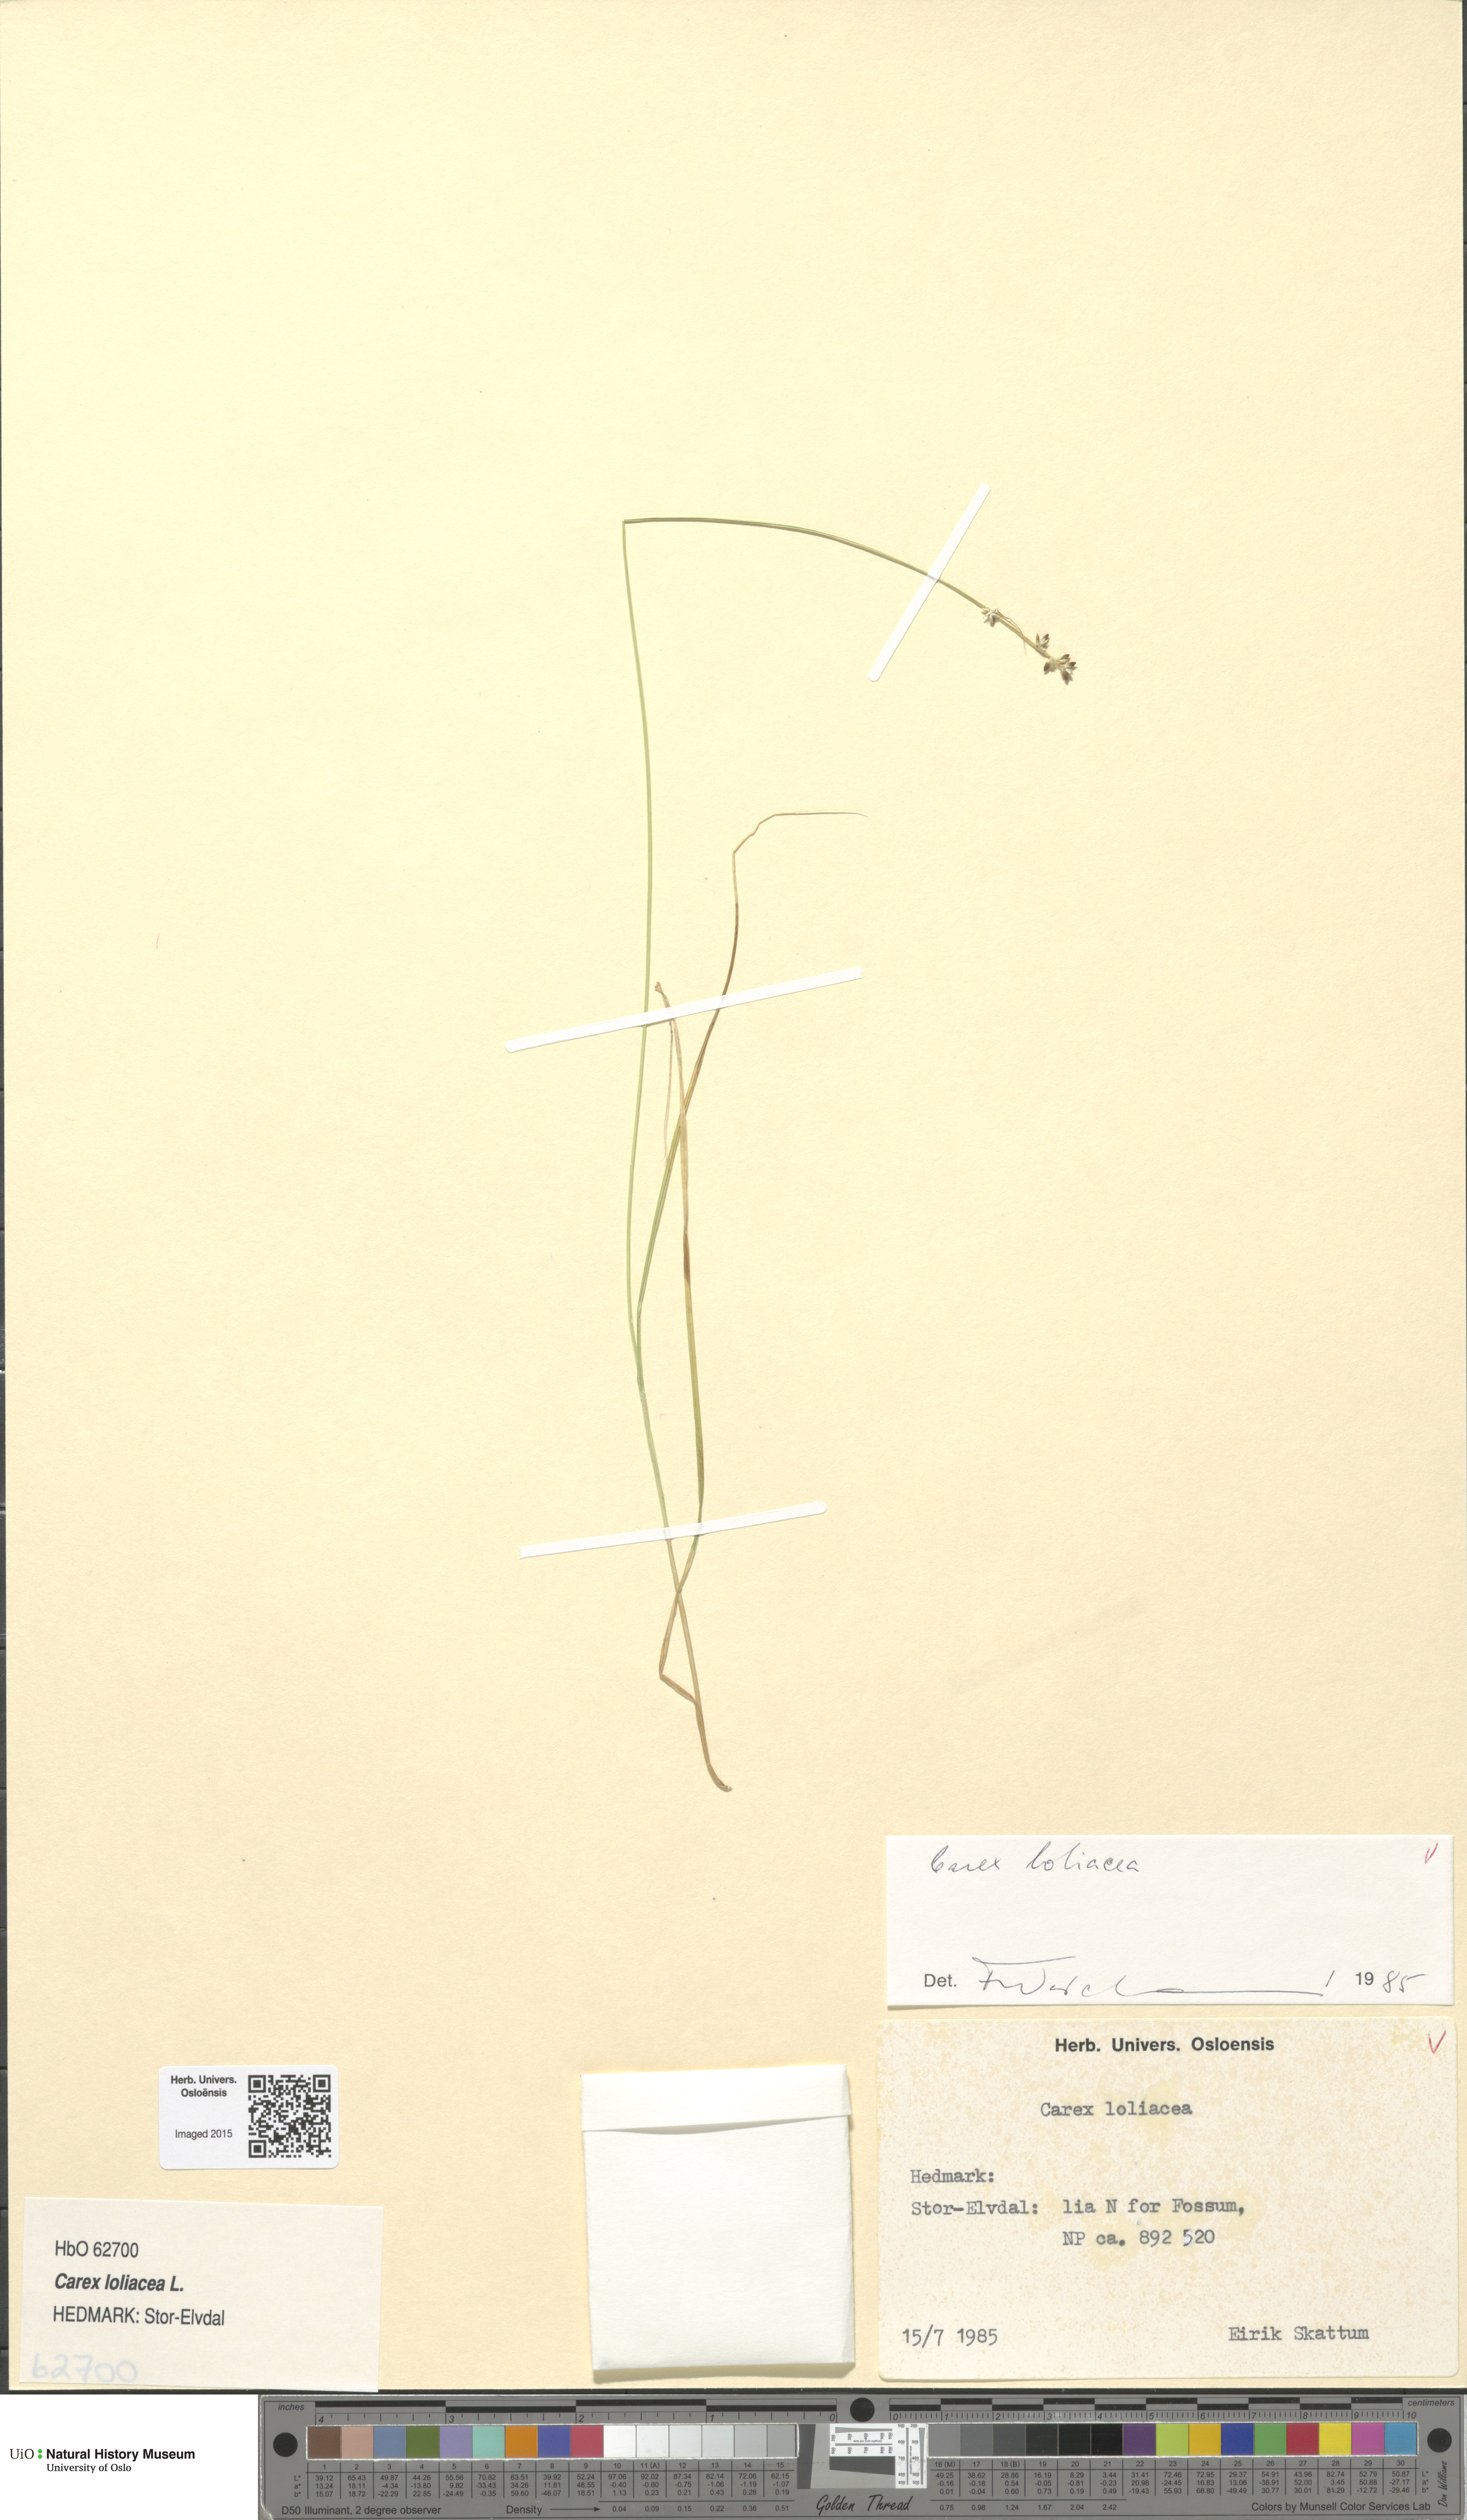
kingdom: Plantae
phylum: Tracheophyta
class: Liliopsida
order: Poales
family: Cyperaceae
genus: Carex
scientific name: Carex loliacea
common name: Ryegrass sedge
